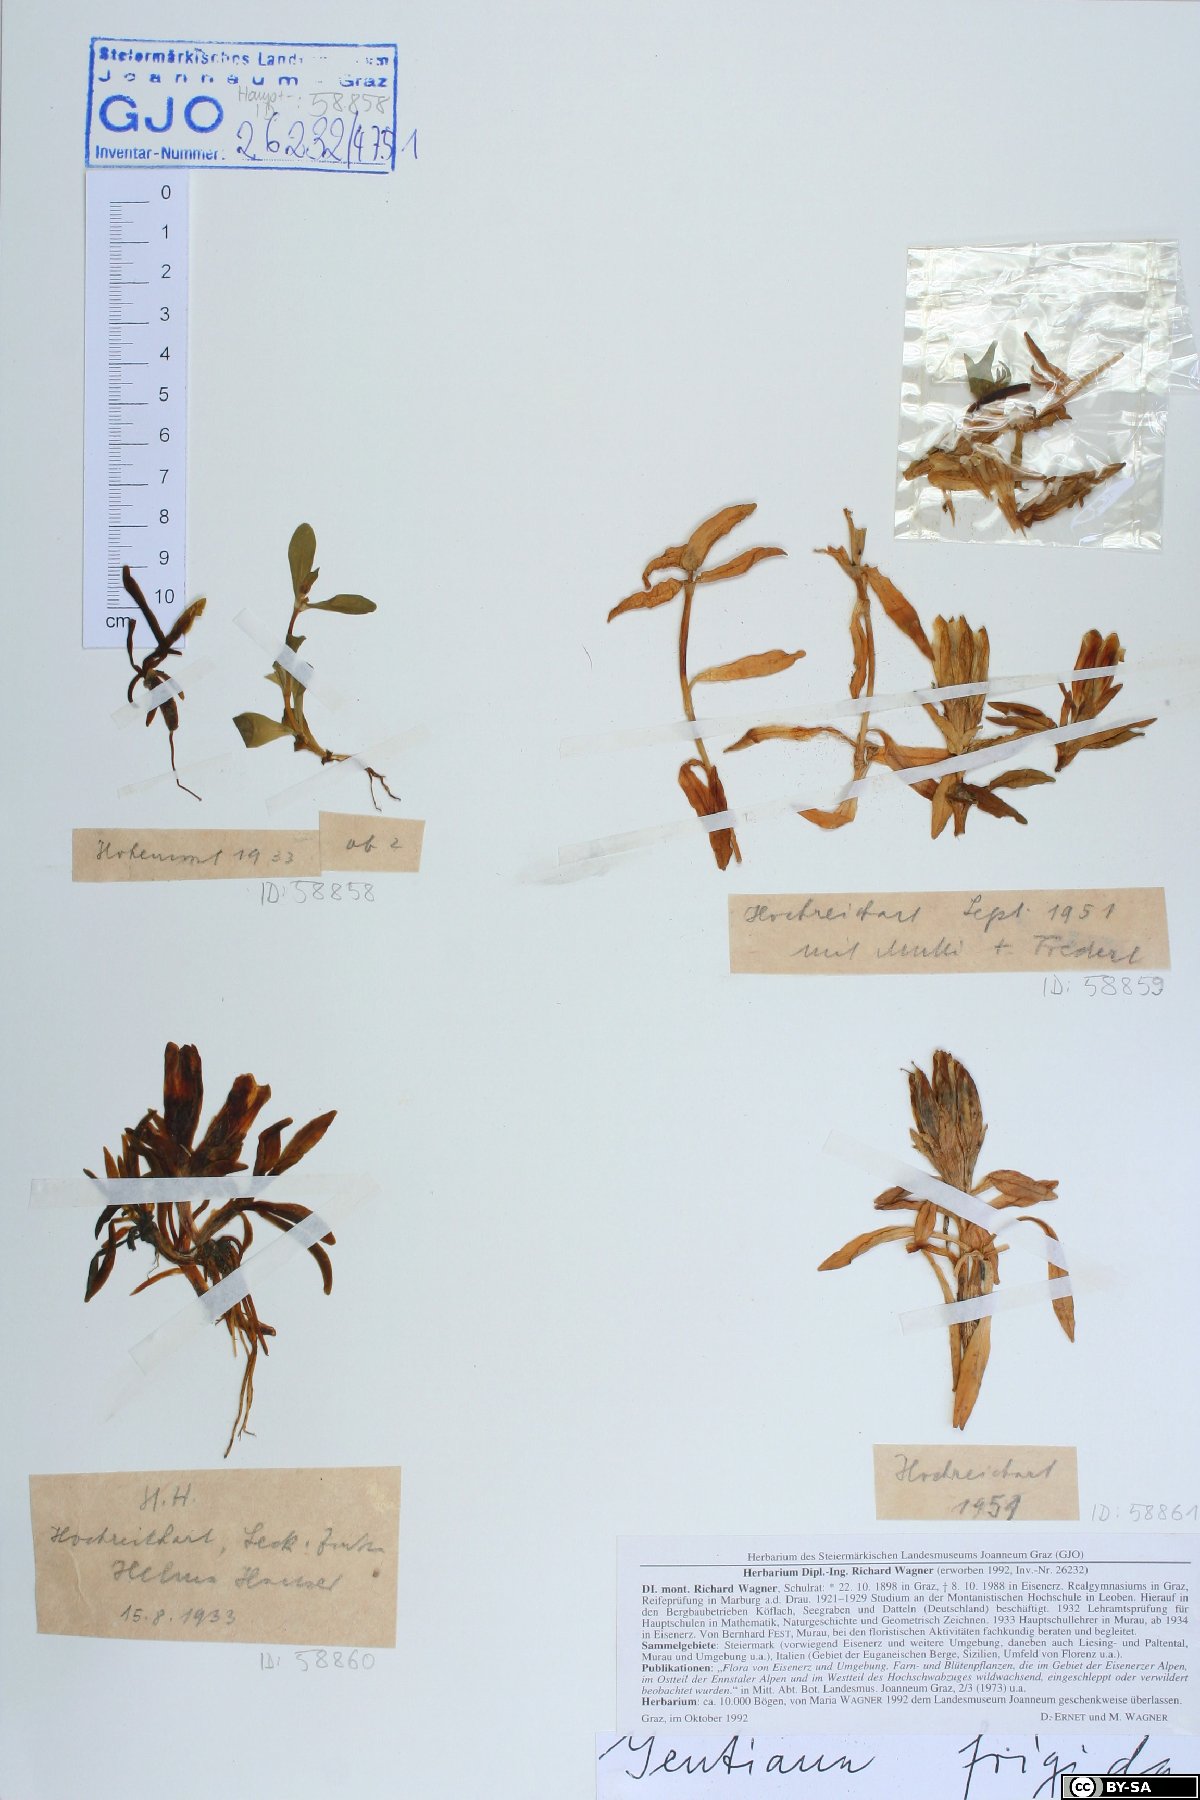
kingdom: Plantae
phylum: Tracheophyta
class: Magnoliopsida
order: Gentianales
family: Gentianaceae
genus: Gentiana
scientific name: Gentiana frigida
